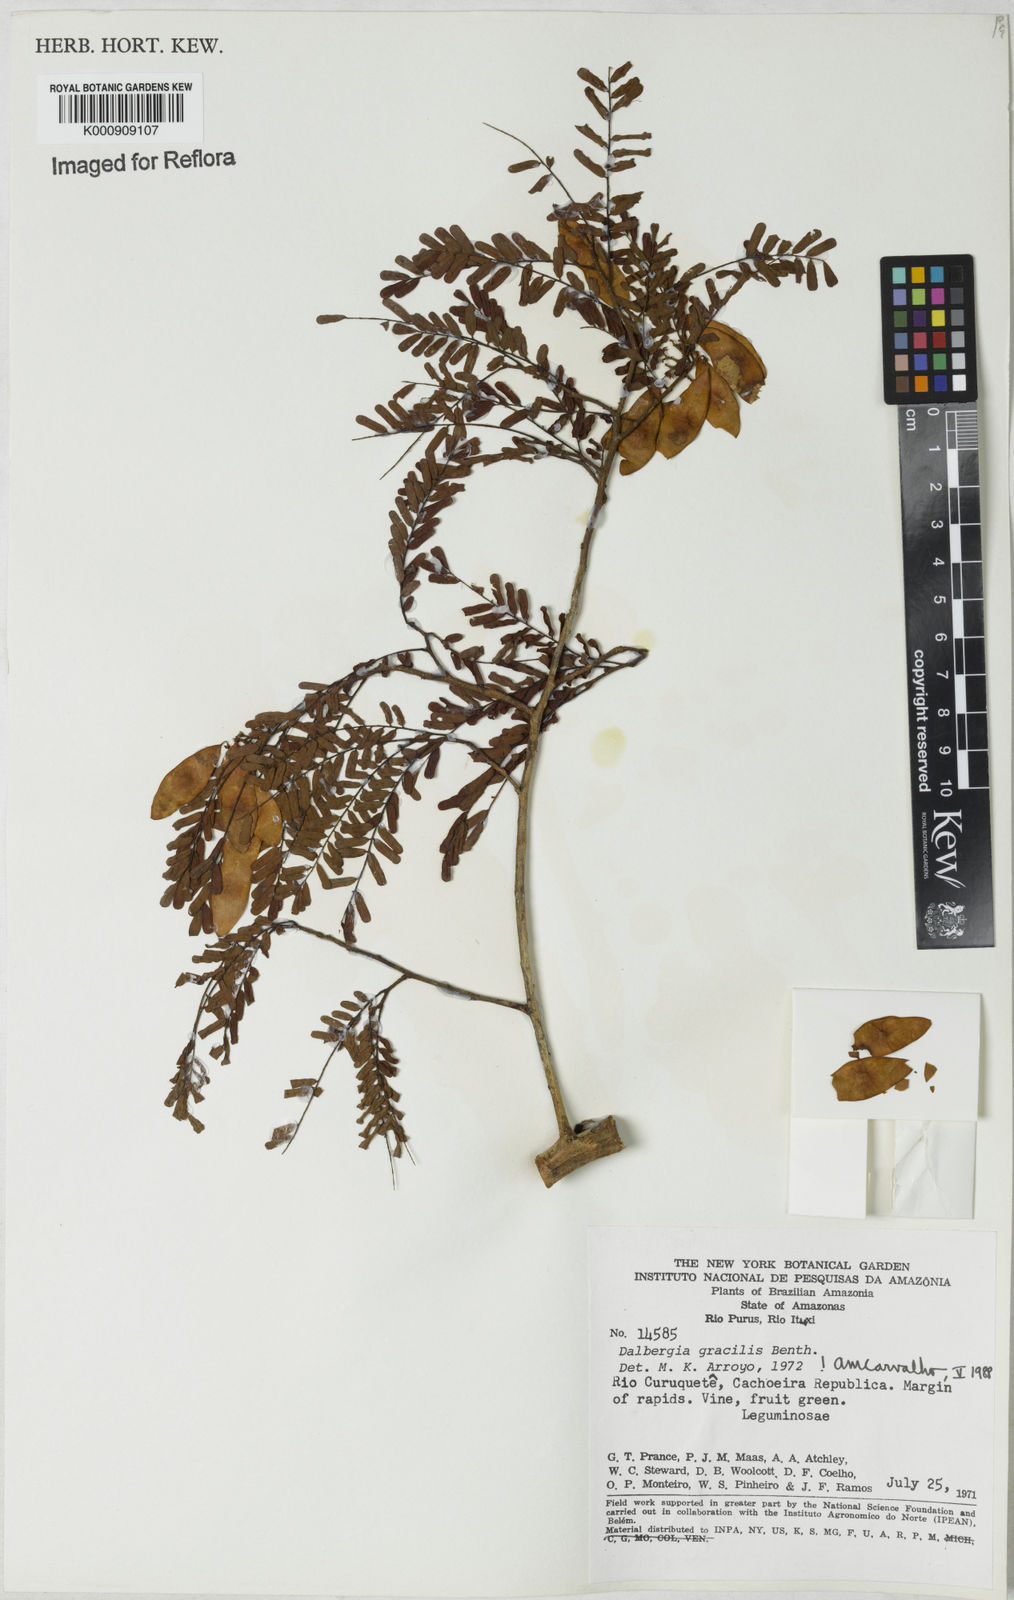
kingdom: Plantae
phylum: Tracheophyta
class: Magnoliopsida
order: Fabales
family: Fabaceae
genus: Dalbergia
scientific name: Dalbergia gracilis
